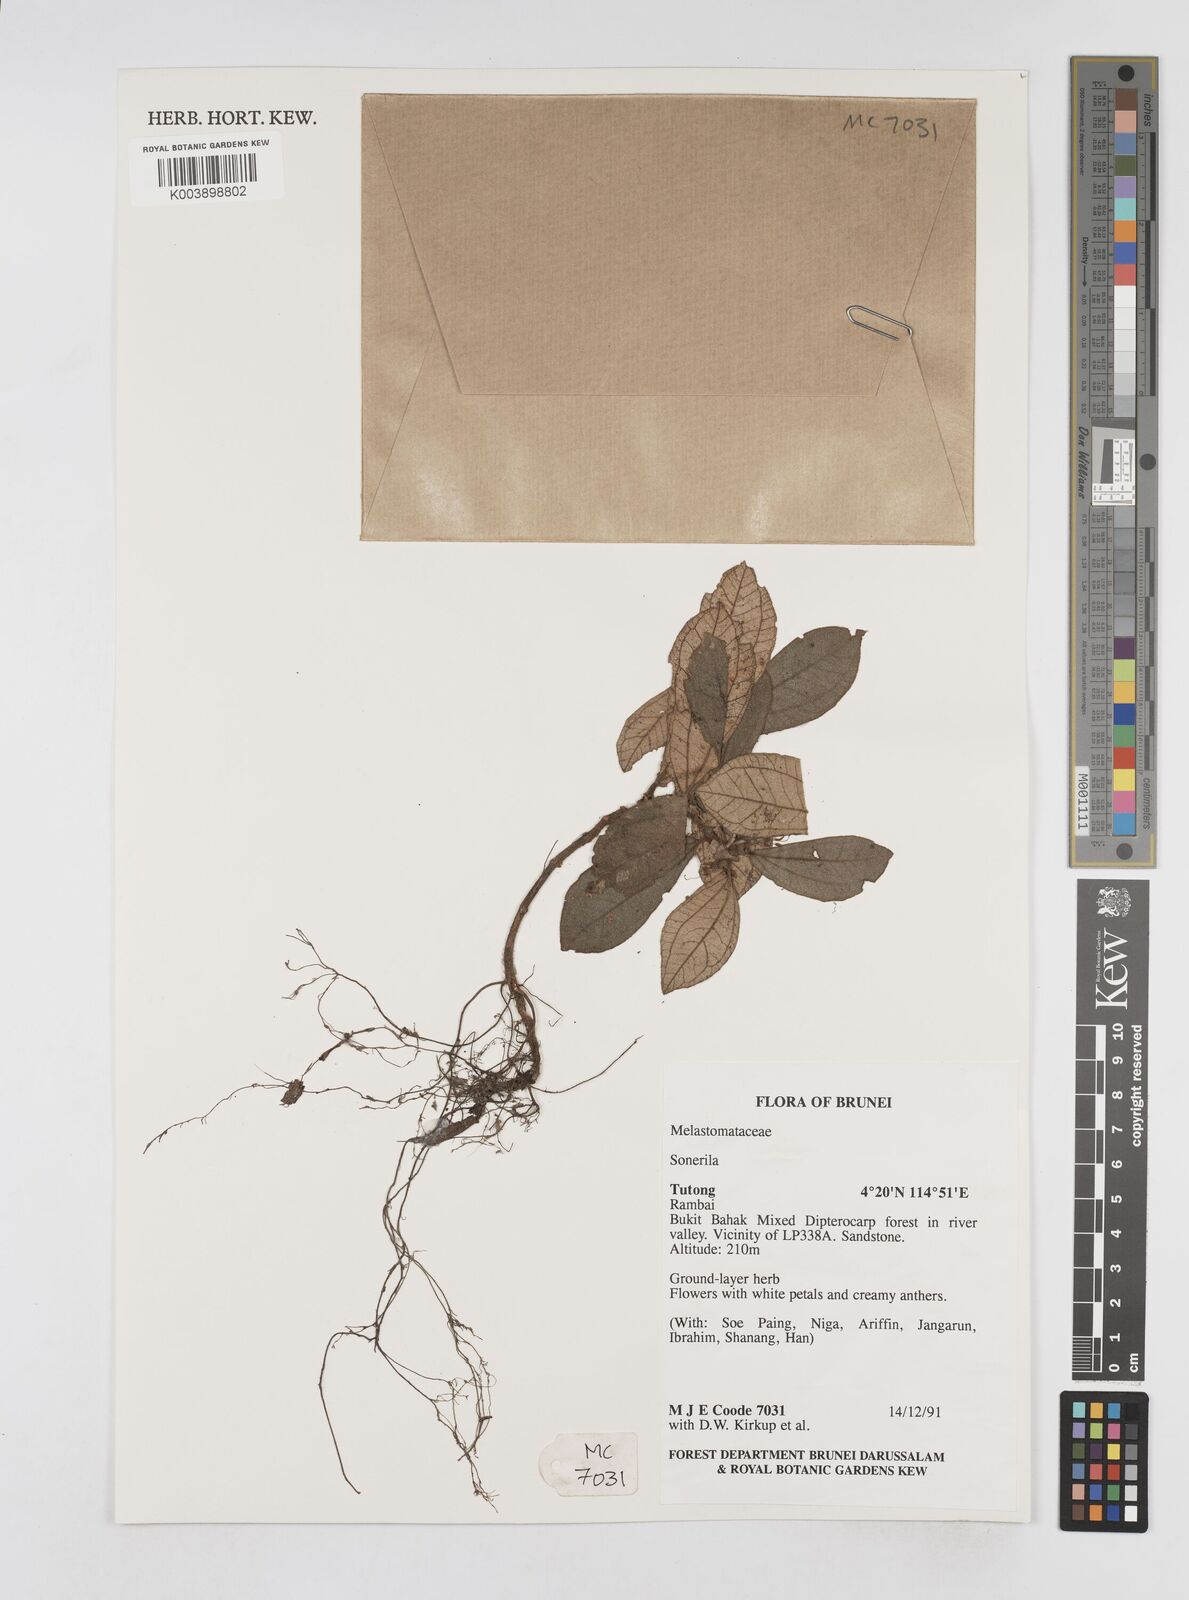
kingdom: Plantae
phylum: Tracheophyta
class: Magnoliopsida
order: Myrtales
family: Melastomataceae
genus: Sonerila
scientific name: Sonerila
